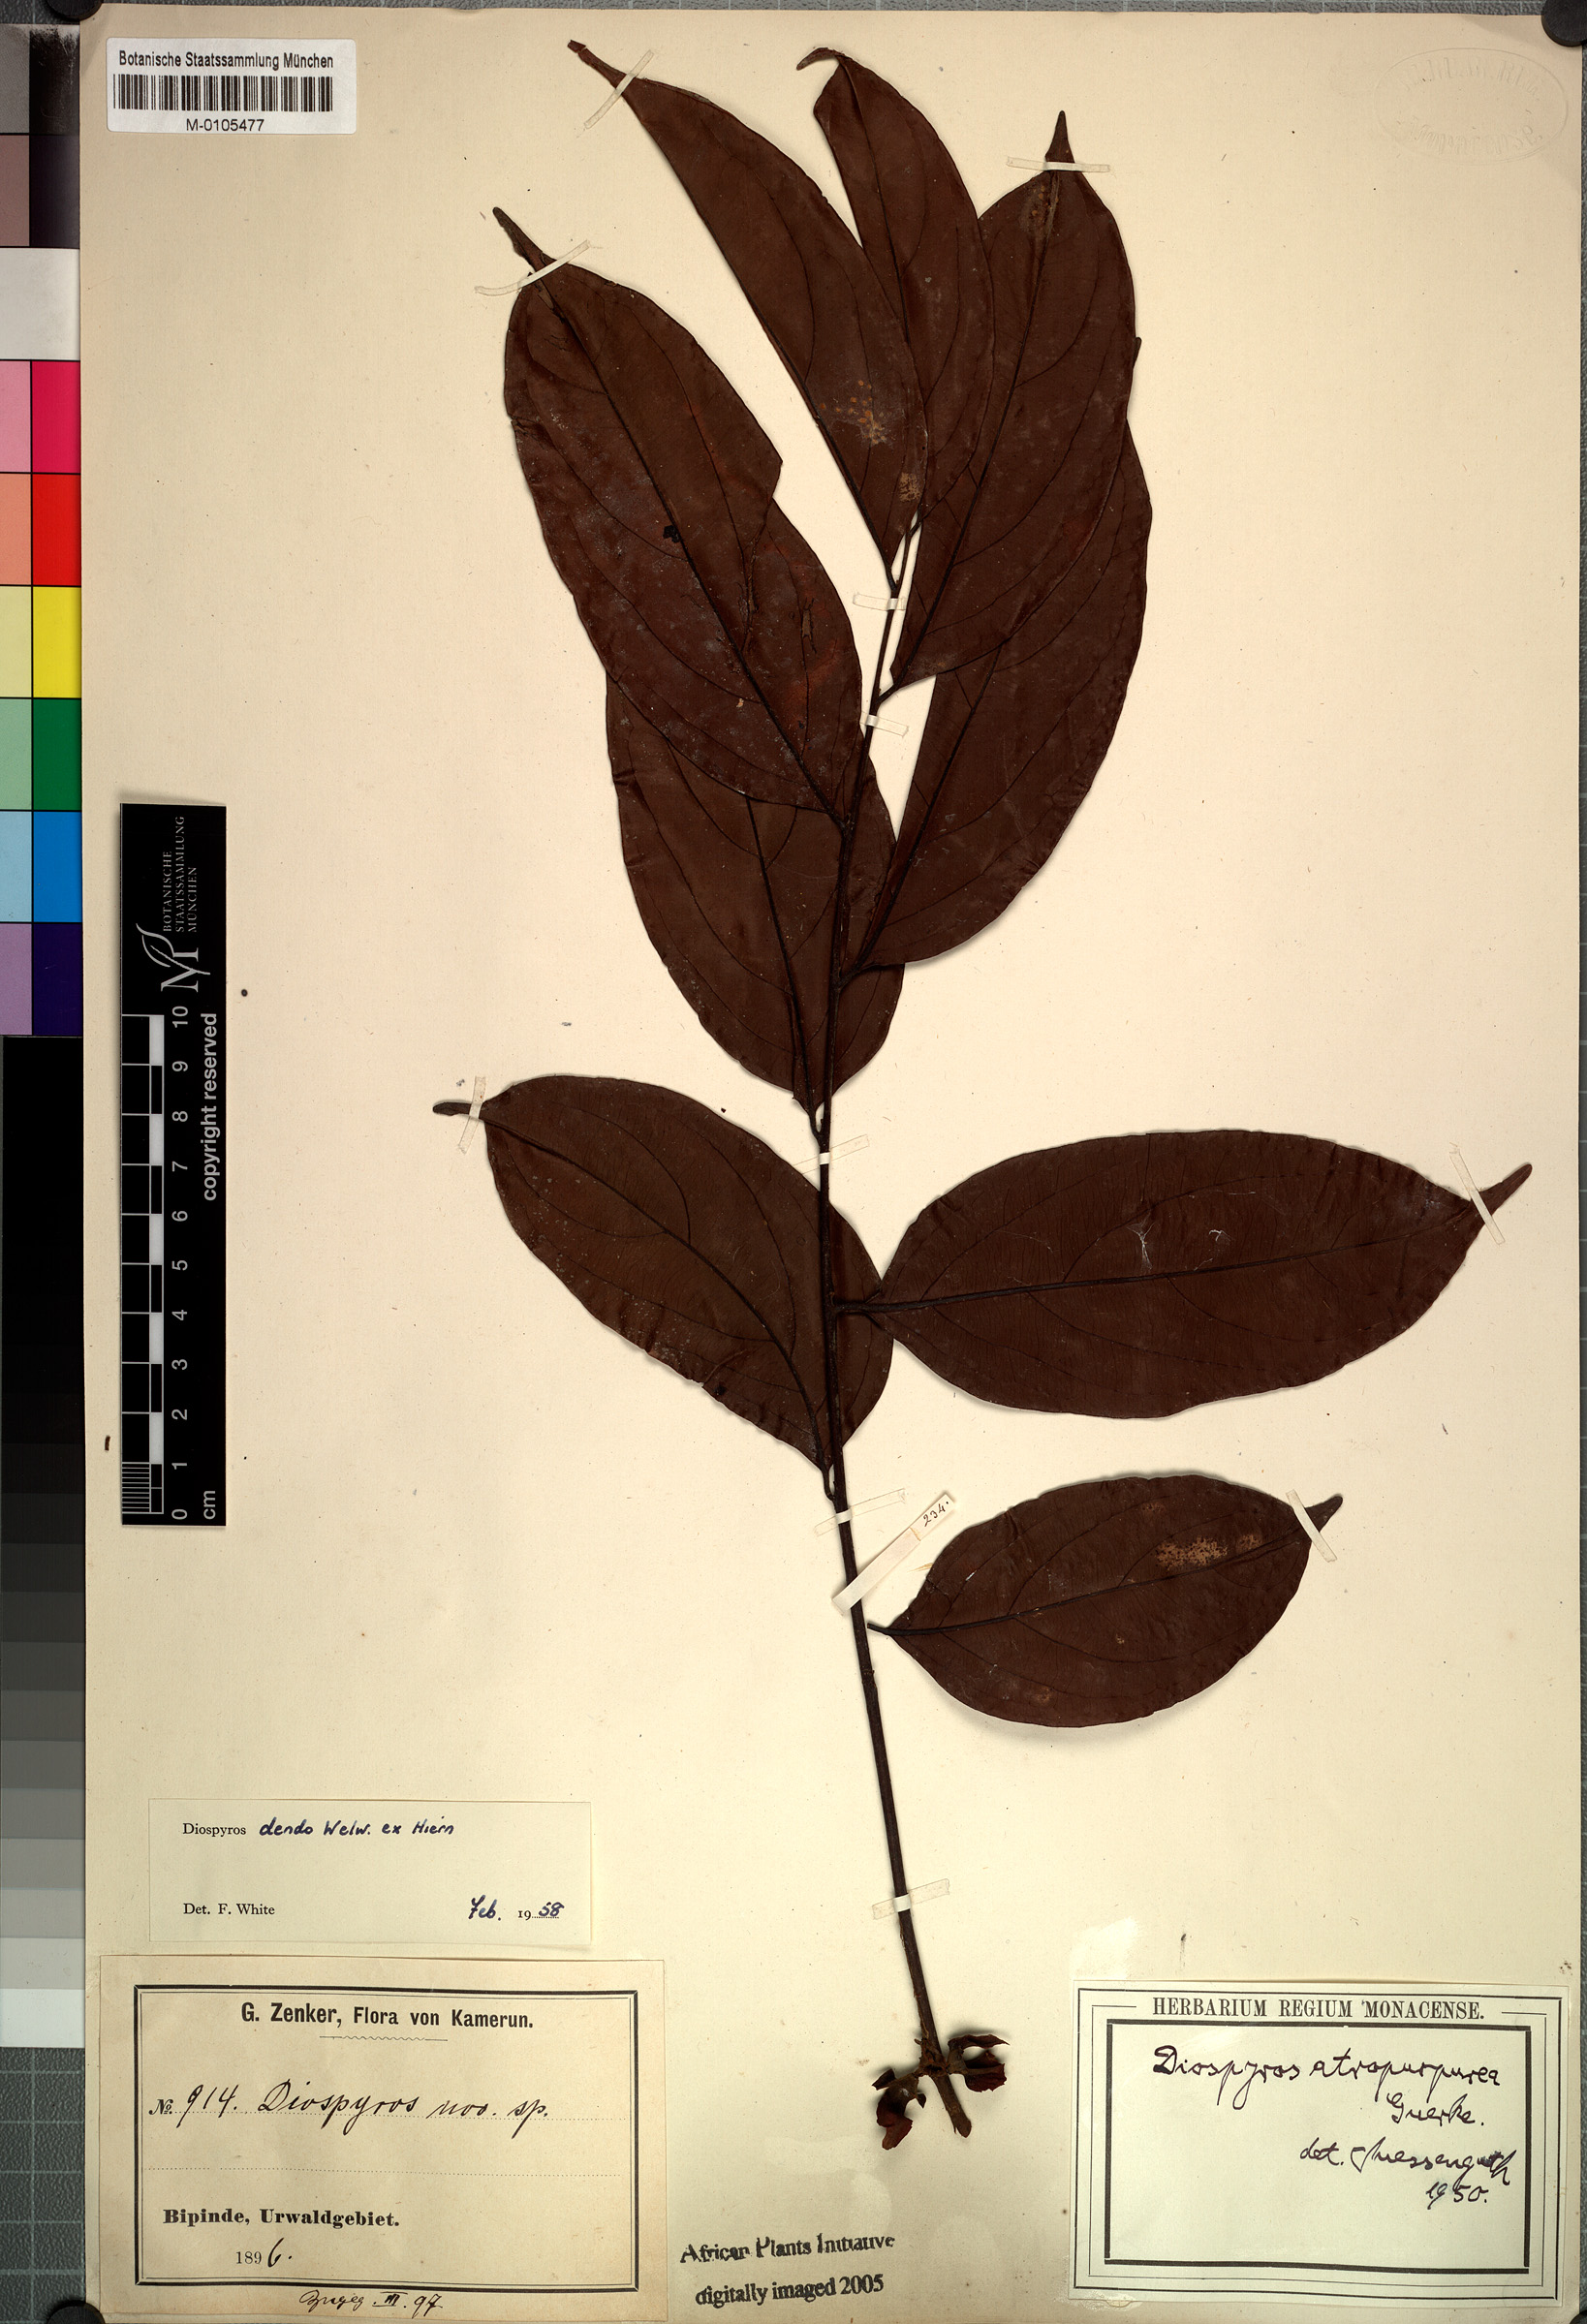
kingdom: Plantae
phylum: Tracheophyta
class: Magnoliopsida
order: Ericales
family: Ebenaceae
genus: Diospyros
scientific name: Diospyros dendo
